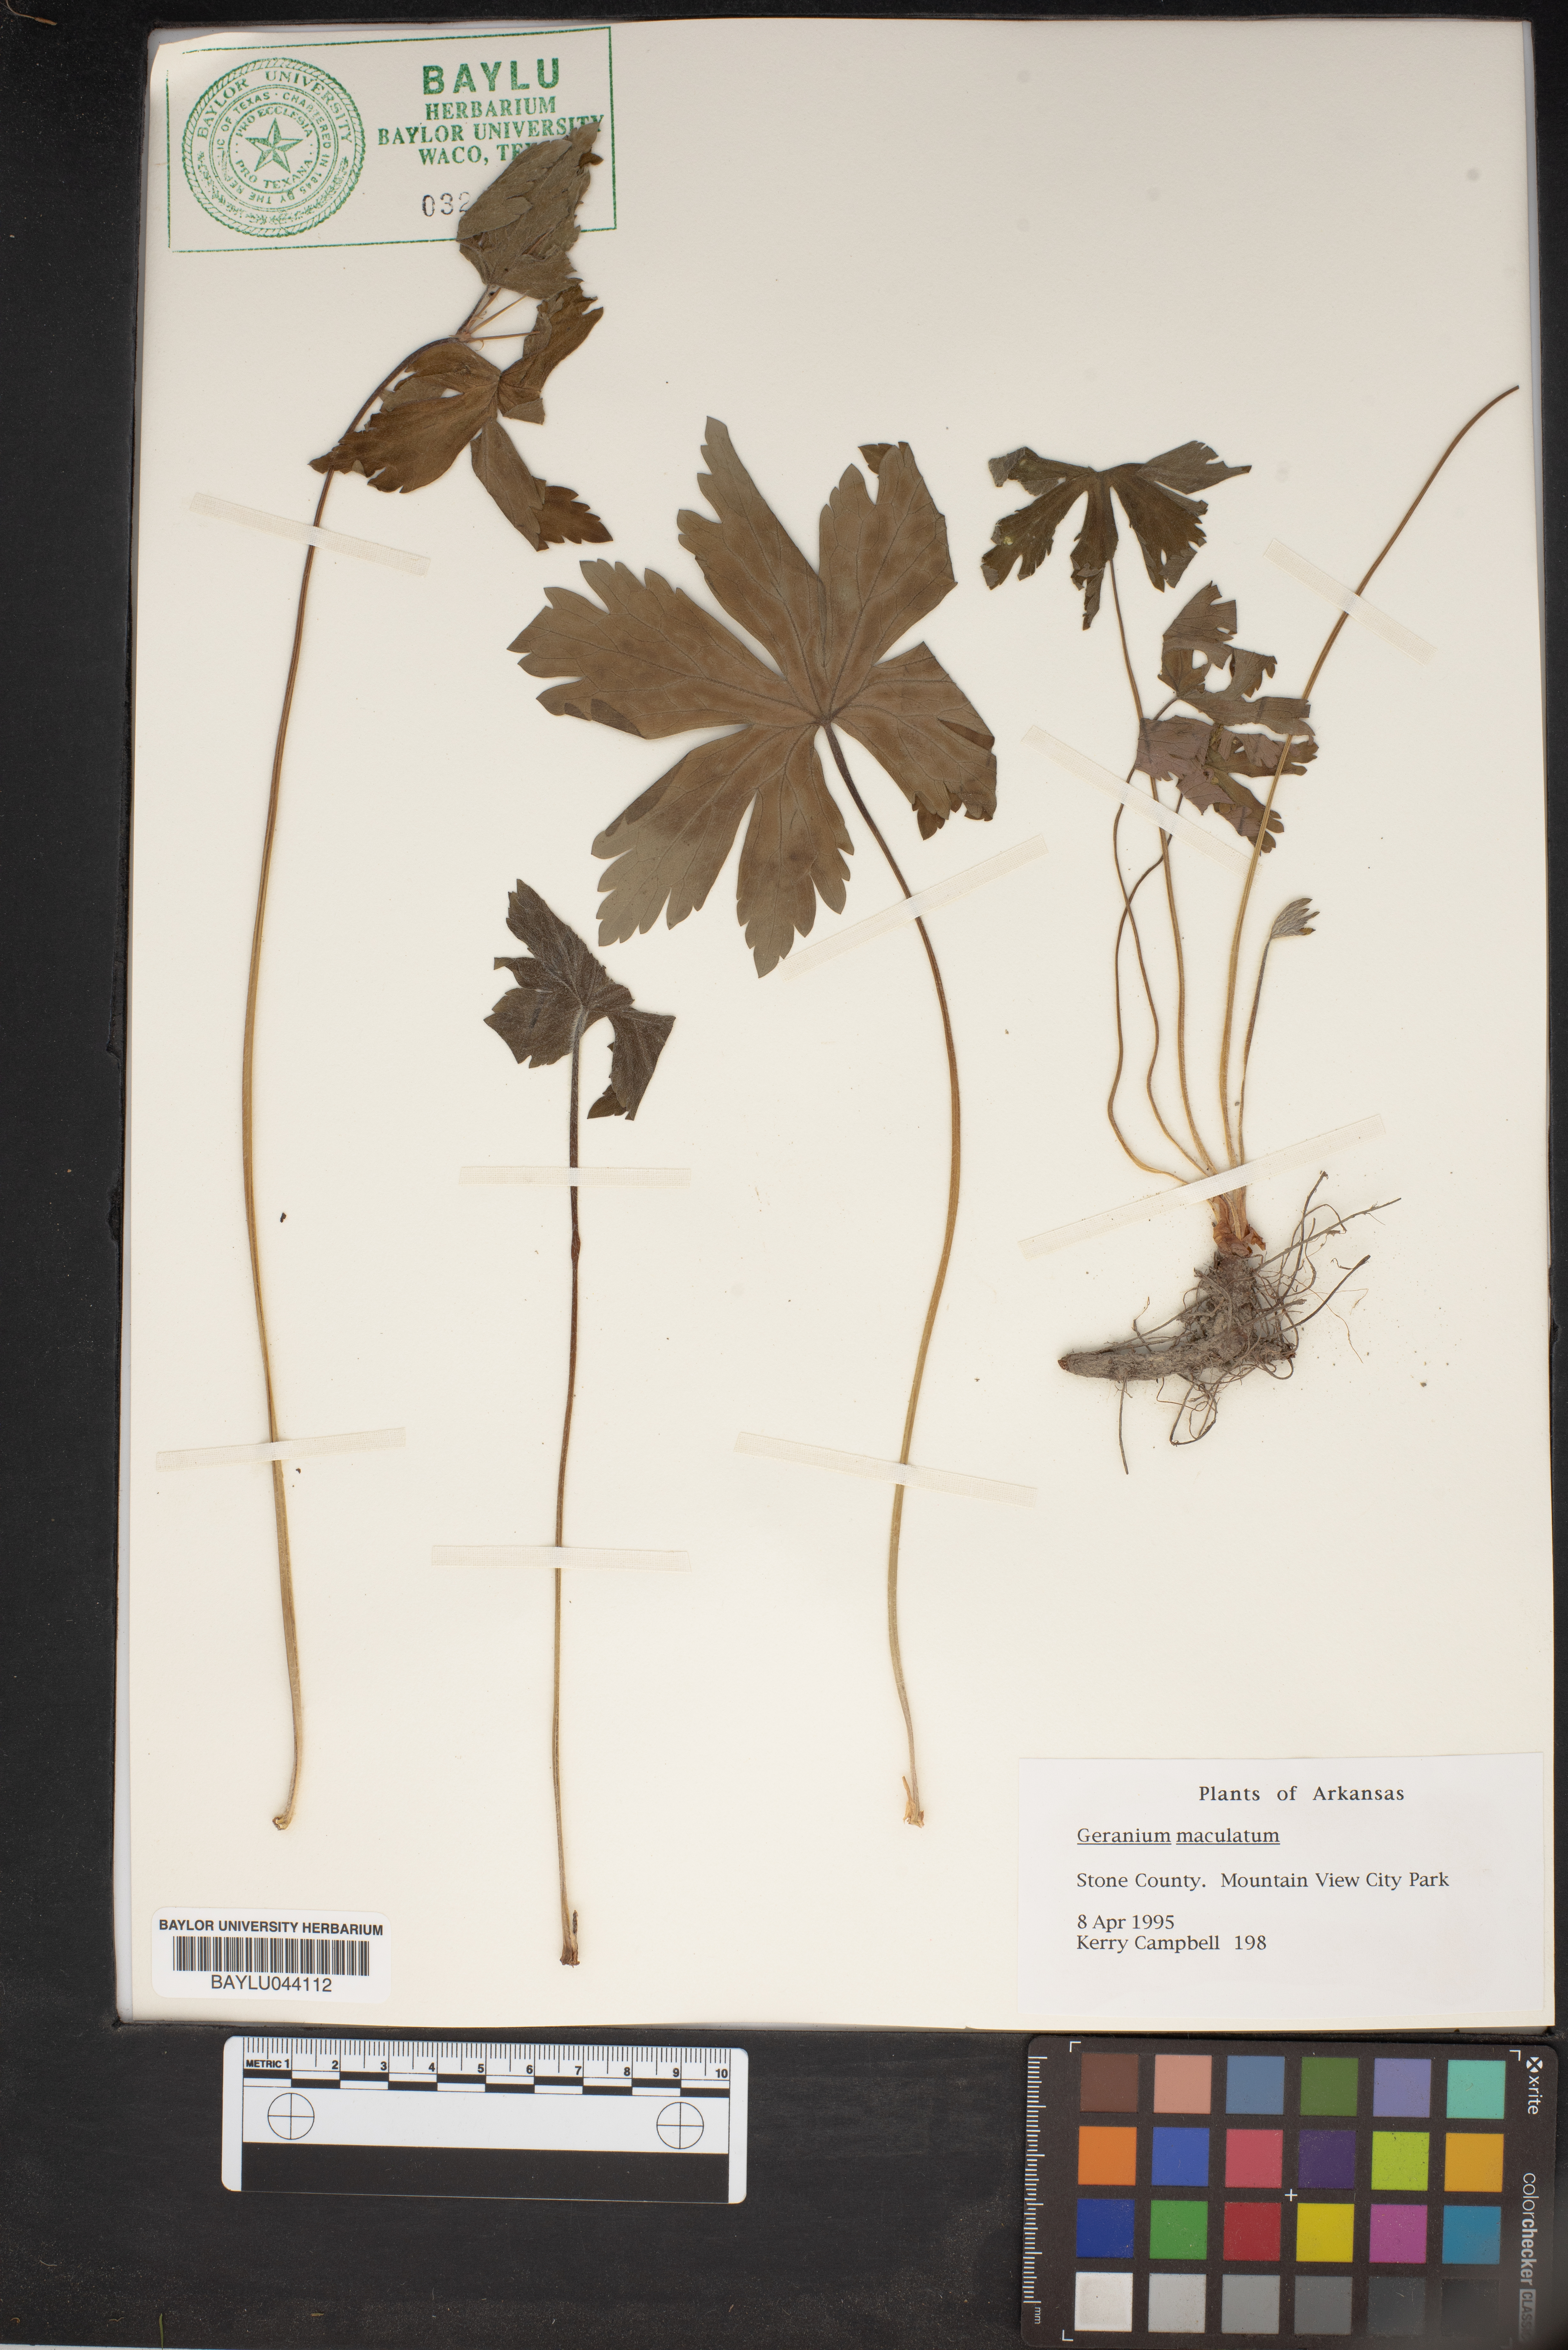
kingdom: Plantae
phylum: Tracheophyta
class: Magnoliopsida
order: Geraniales
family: Geraniaceae
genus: Geranium
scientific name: Geranium maculatum
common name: Spotted geranium
